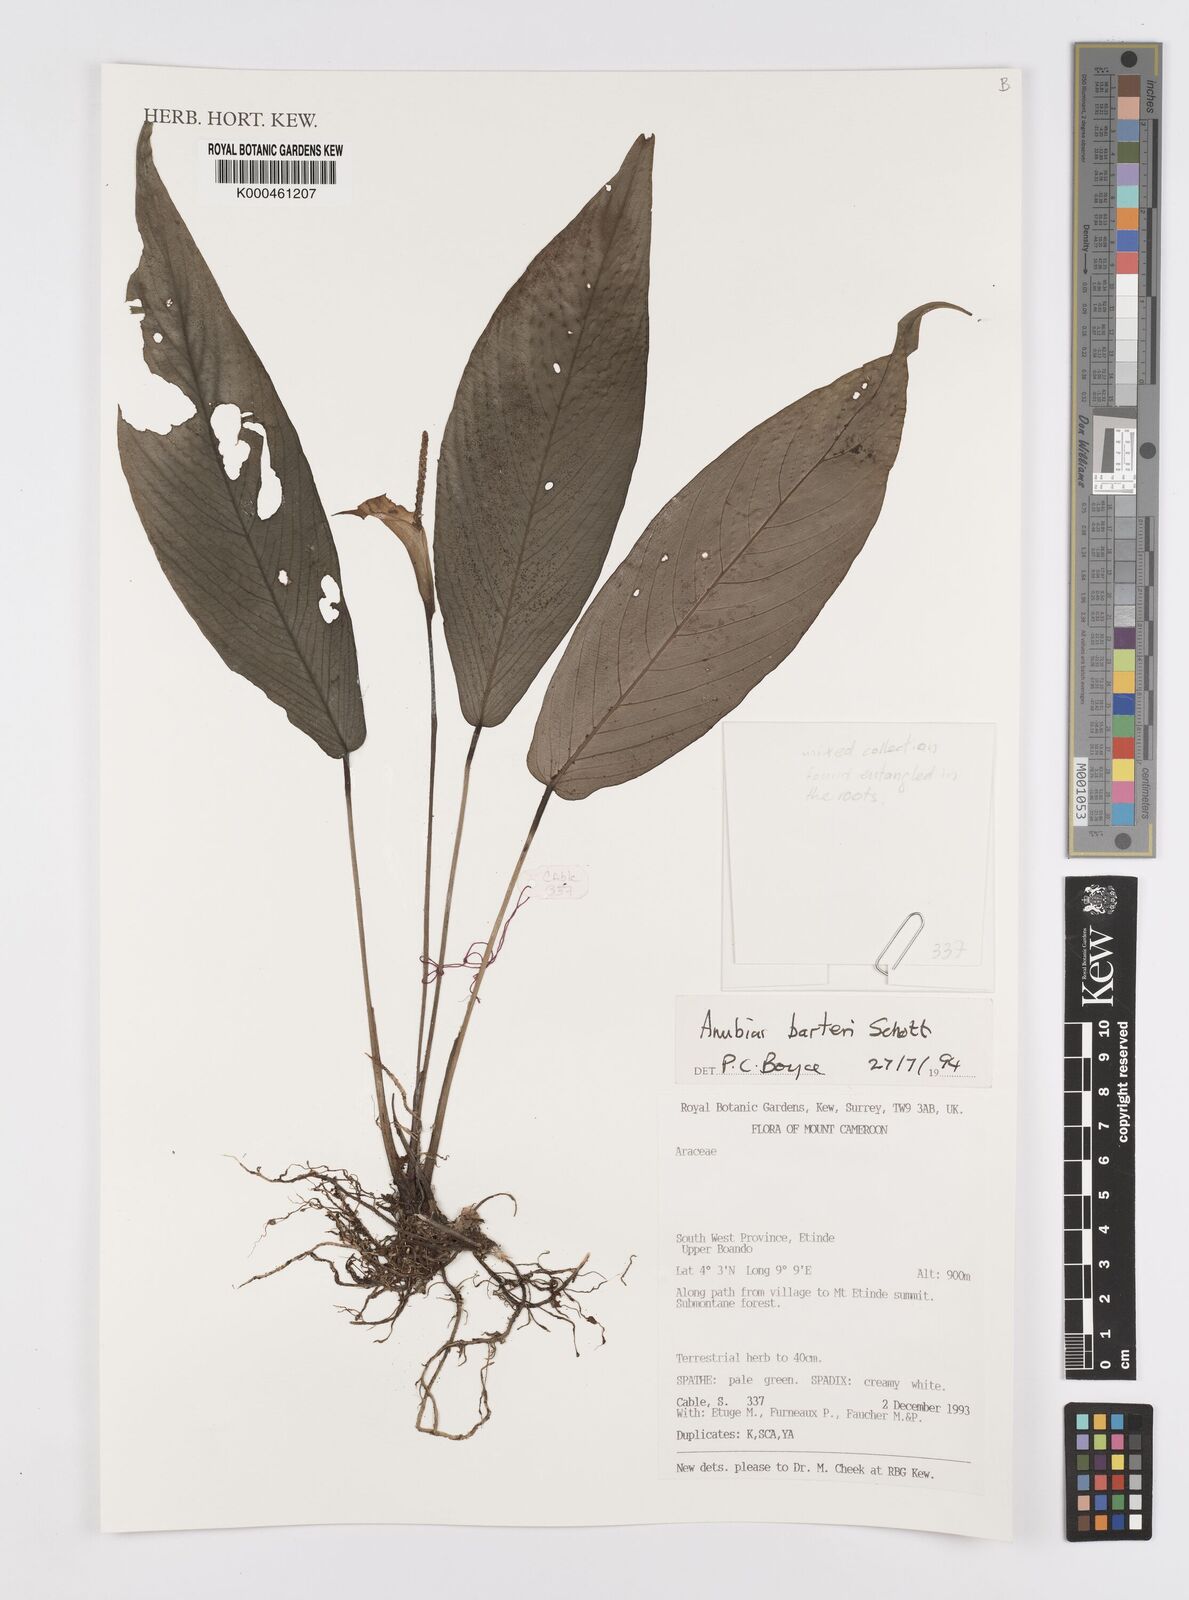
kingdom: Plantae
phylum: Tracheophyta
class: Liliopsida
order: Alismatales
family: Araceae
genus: Anubias
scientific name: Anubias barteri
